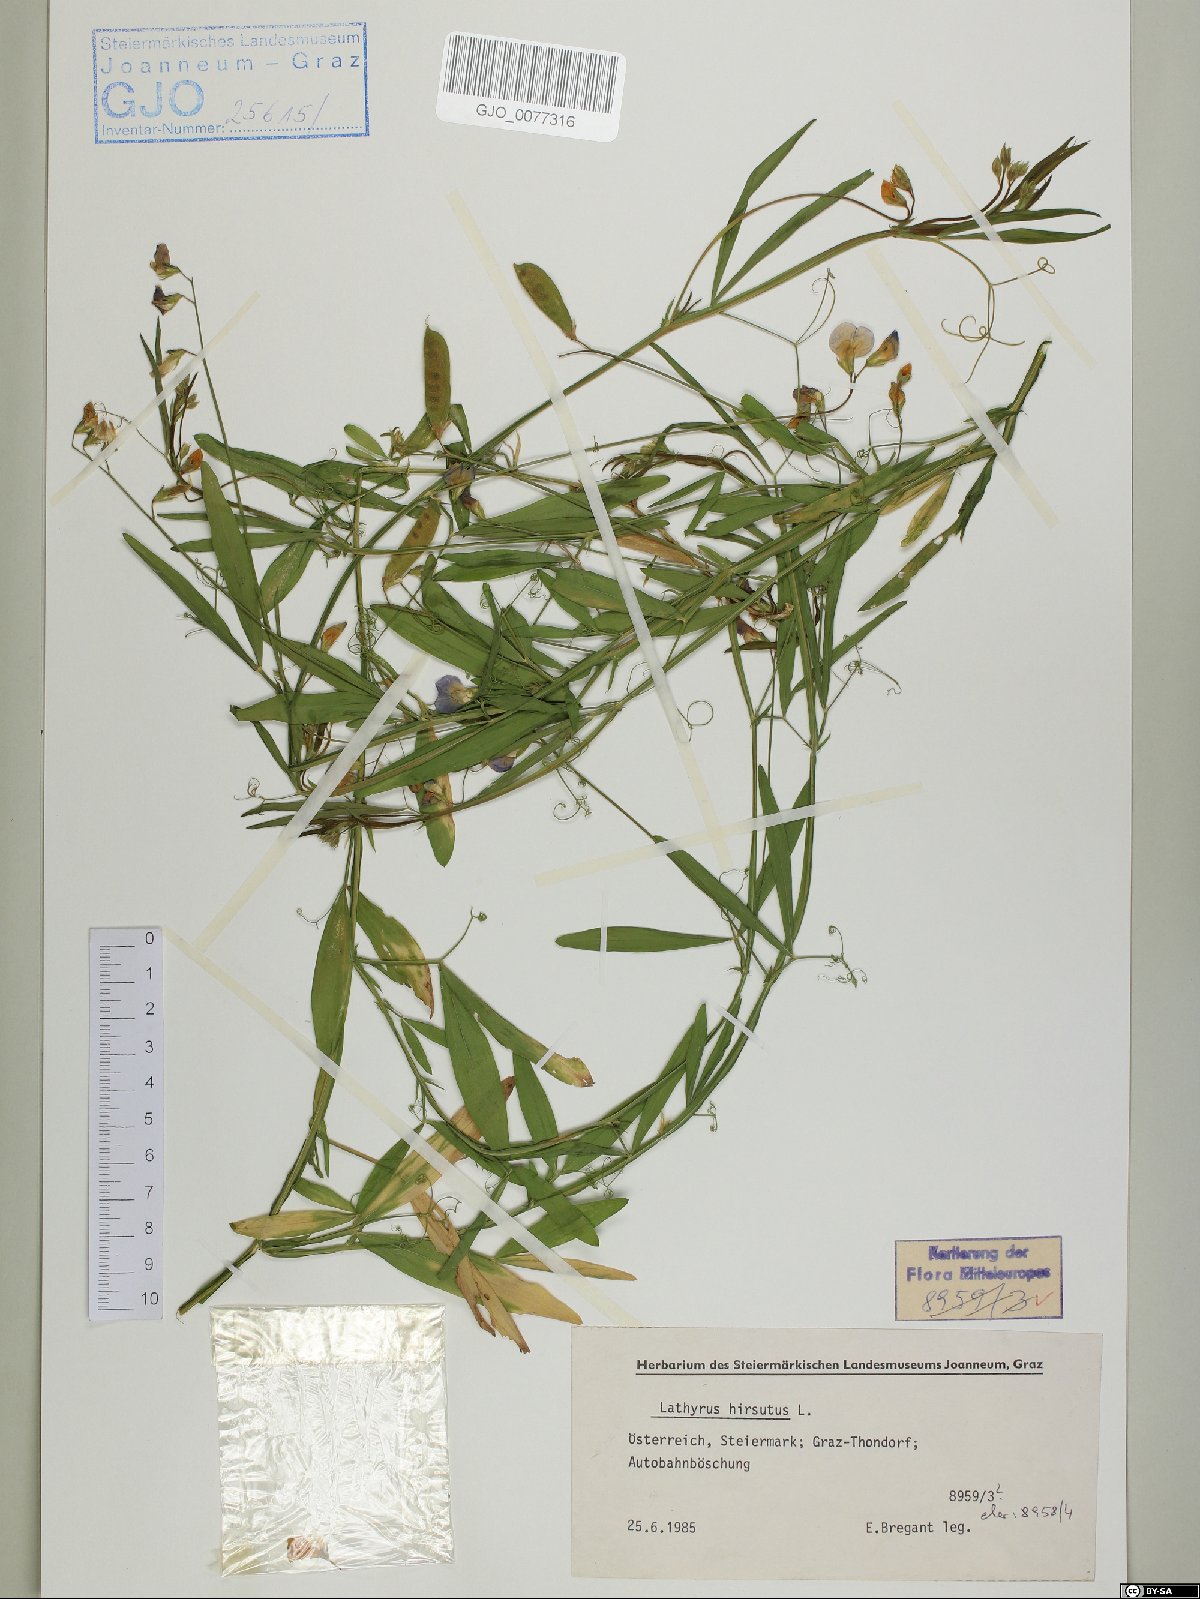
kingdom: Plantae
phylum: Tracheophyta
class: Magnoliopsida
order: Fabales
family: Fabaceae
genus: Lathyrus
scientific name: Lathyrus hirsutus
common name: Hairy vetchling
